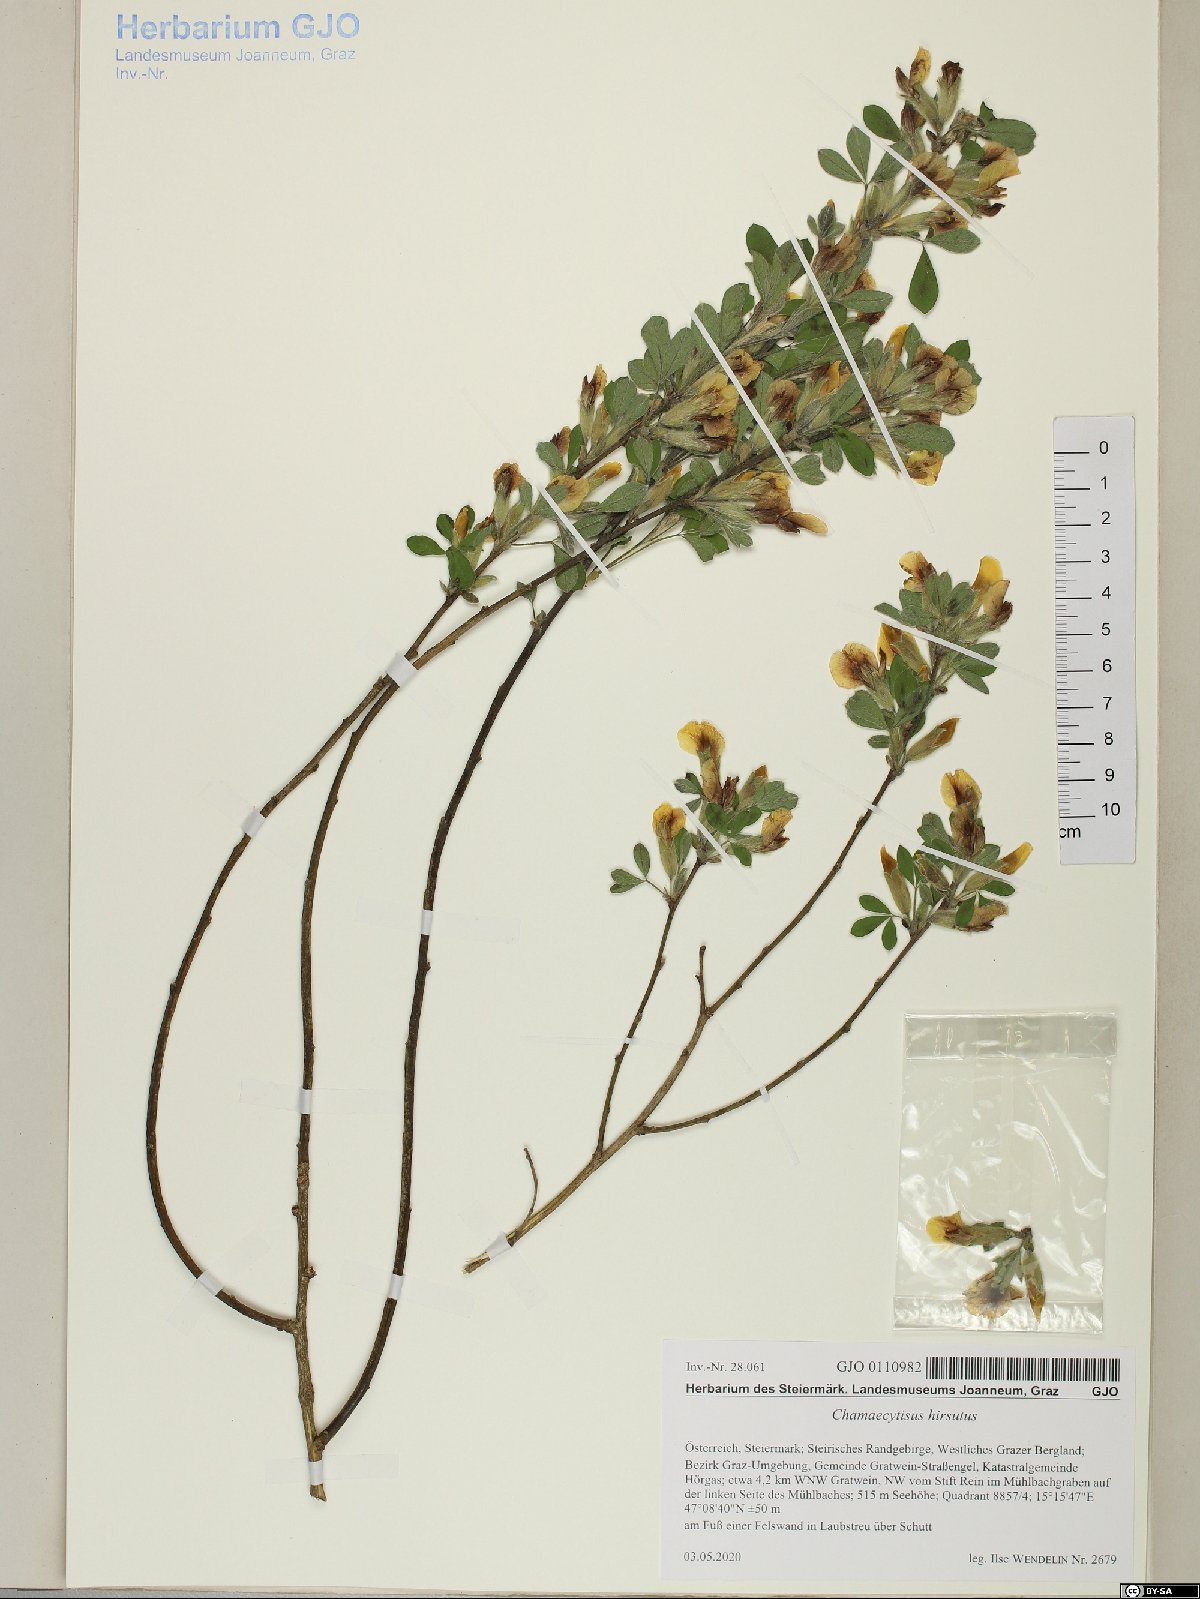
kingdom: Plantae
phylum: Tracheophyta
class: Magnoliopsida
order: Fabales
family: Fabaceae
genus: Chamaecytisus
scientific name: Chamaecytisus hirsutus
